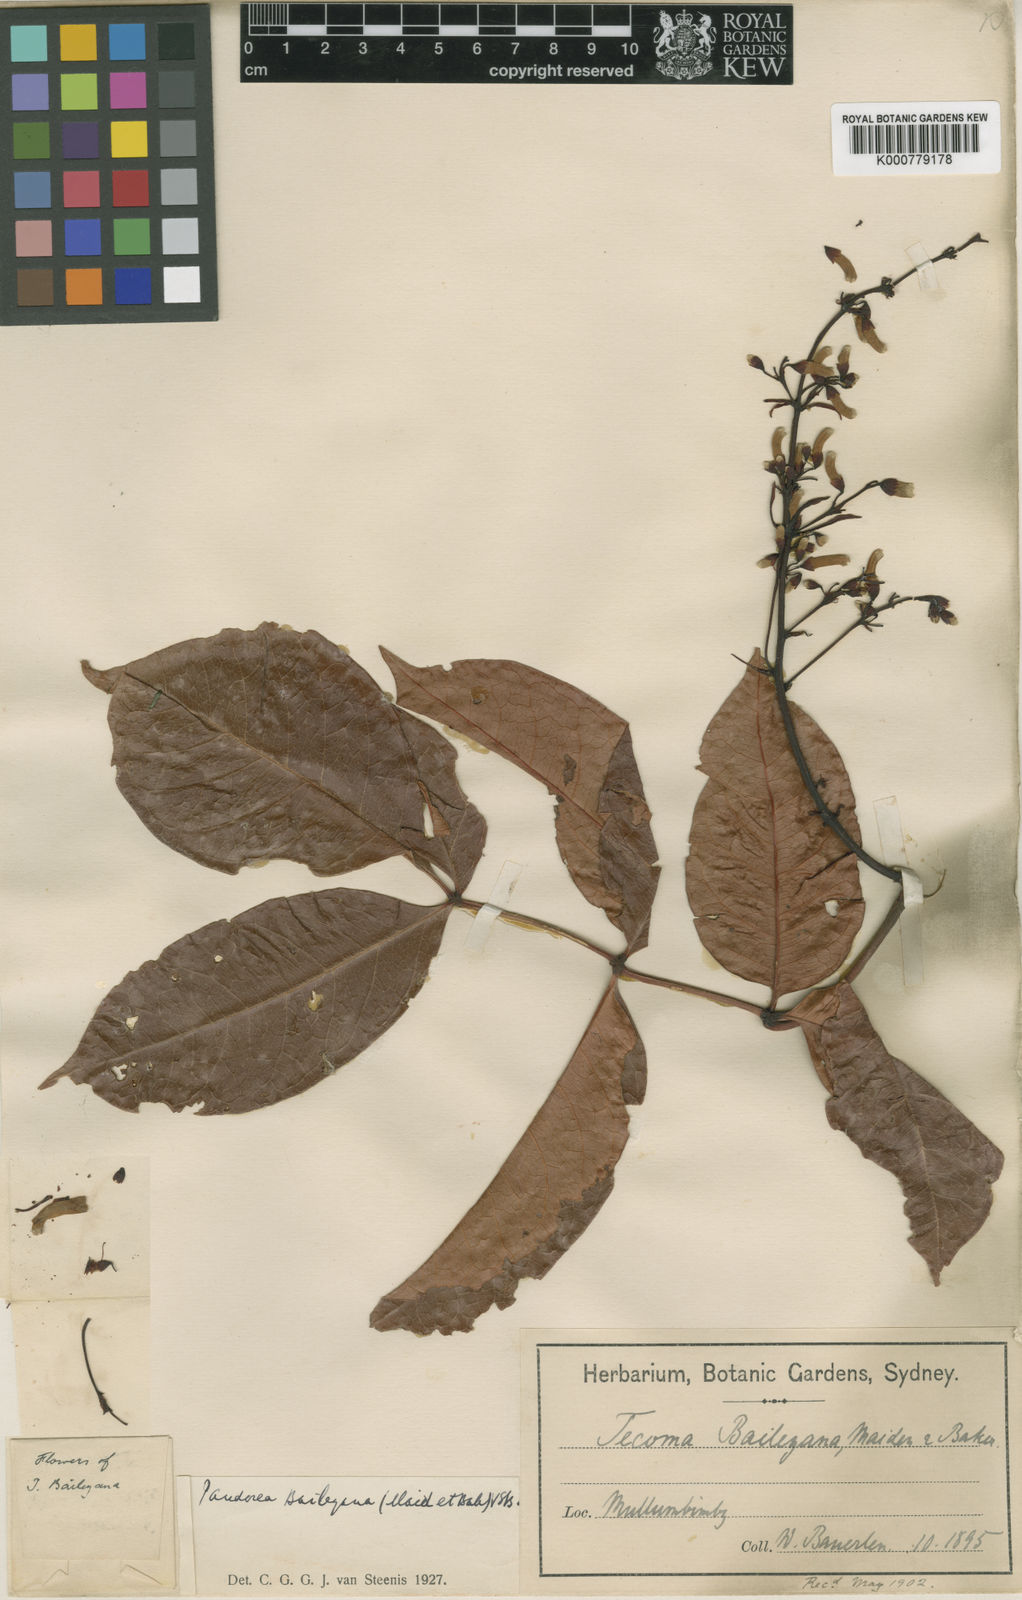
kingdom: Plantae
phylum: Tracheophyta
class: Magnoliopsida
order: Lamiales
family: Bignoniaceae
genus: Pandorea
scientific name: Pandorea baileyana
